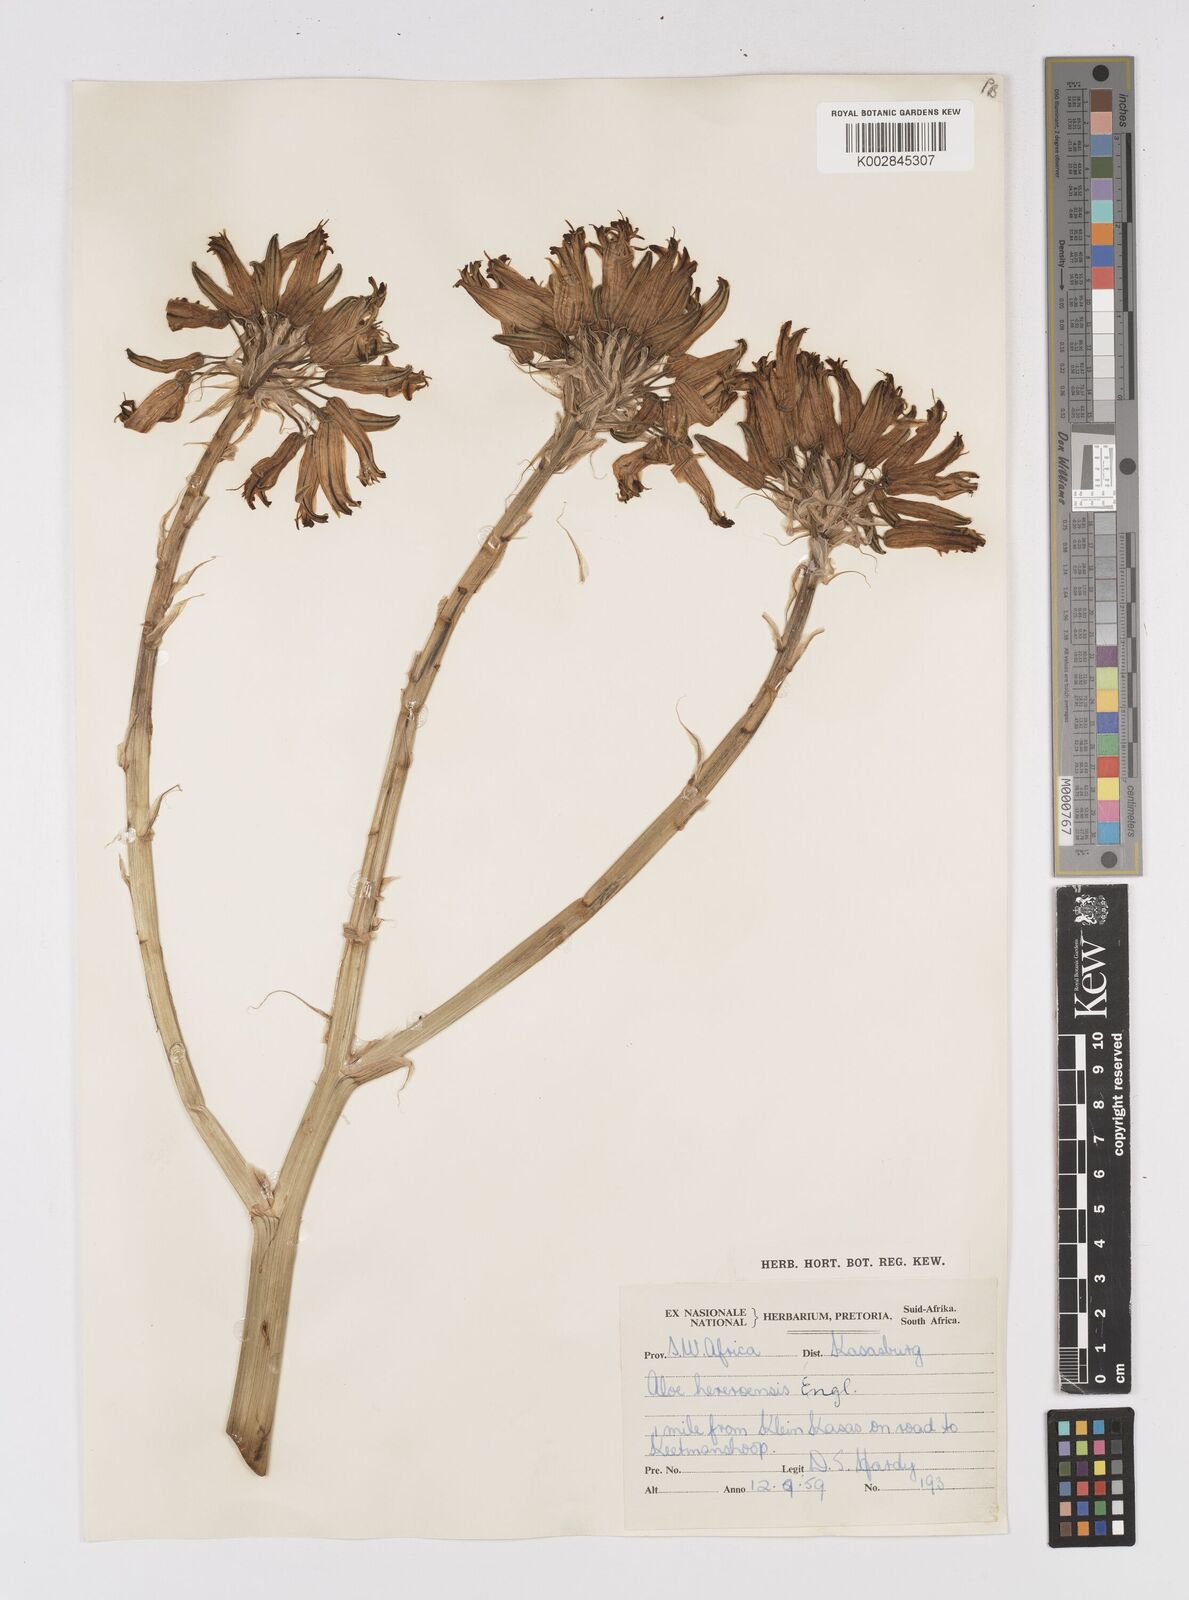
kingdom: Plantae
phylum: Tracheophyta
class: Liliopsida
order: Asparagales
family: Asphodelaceae
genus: Aloe
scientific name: Aloe hereroensis
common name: Herero aloe
